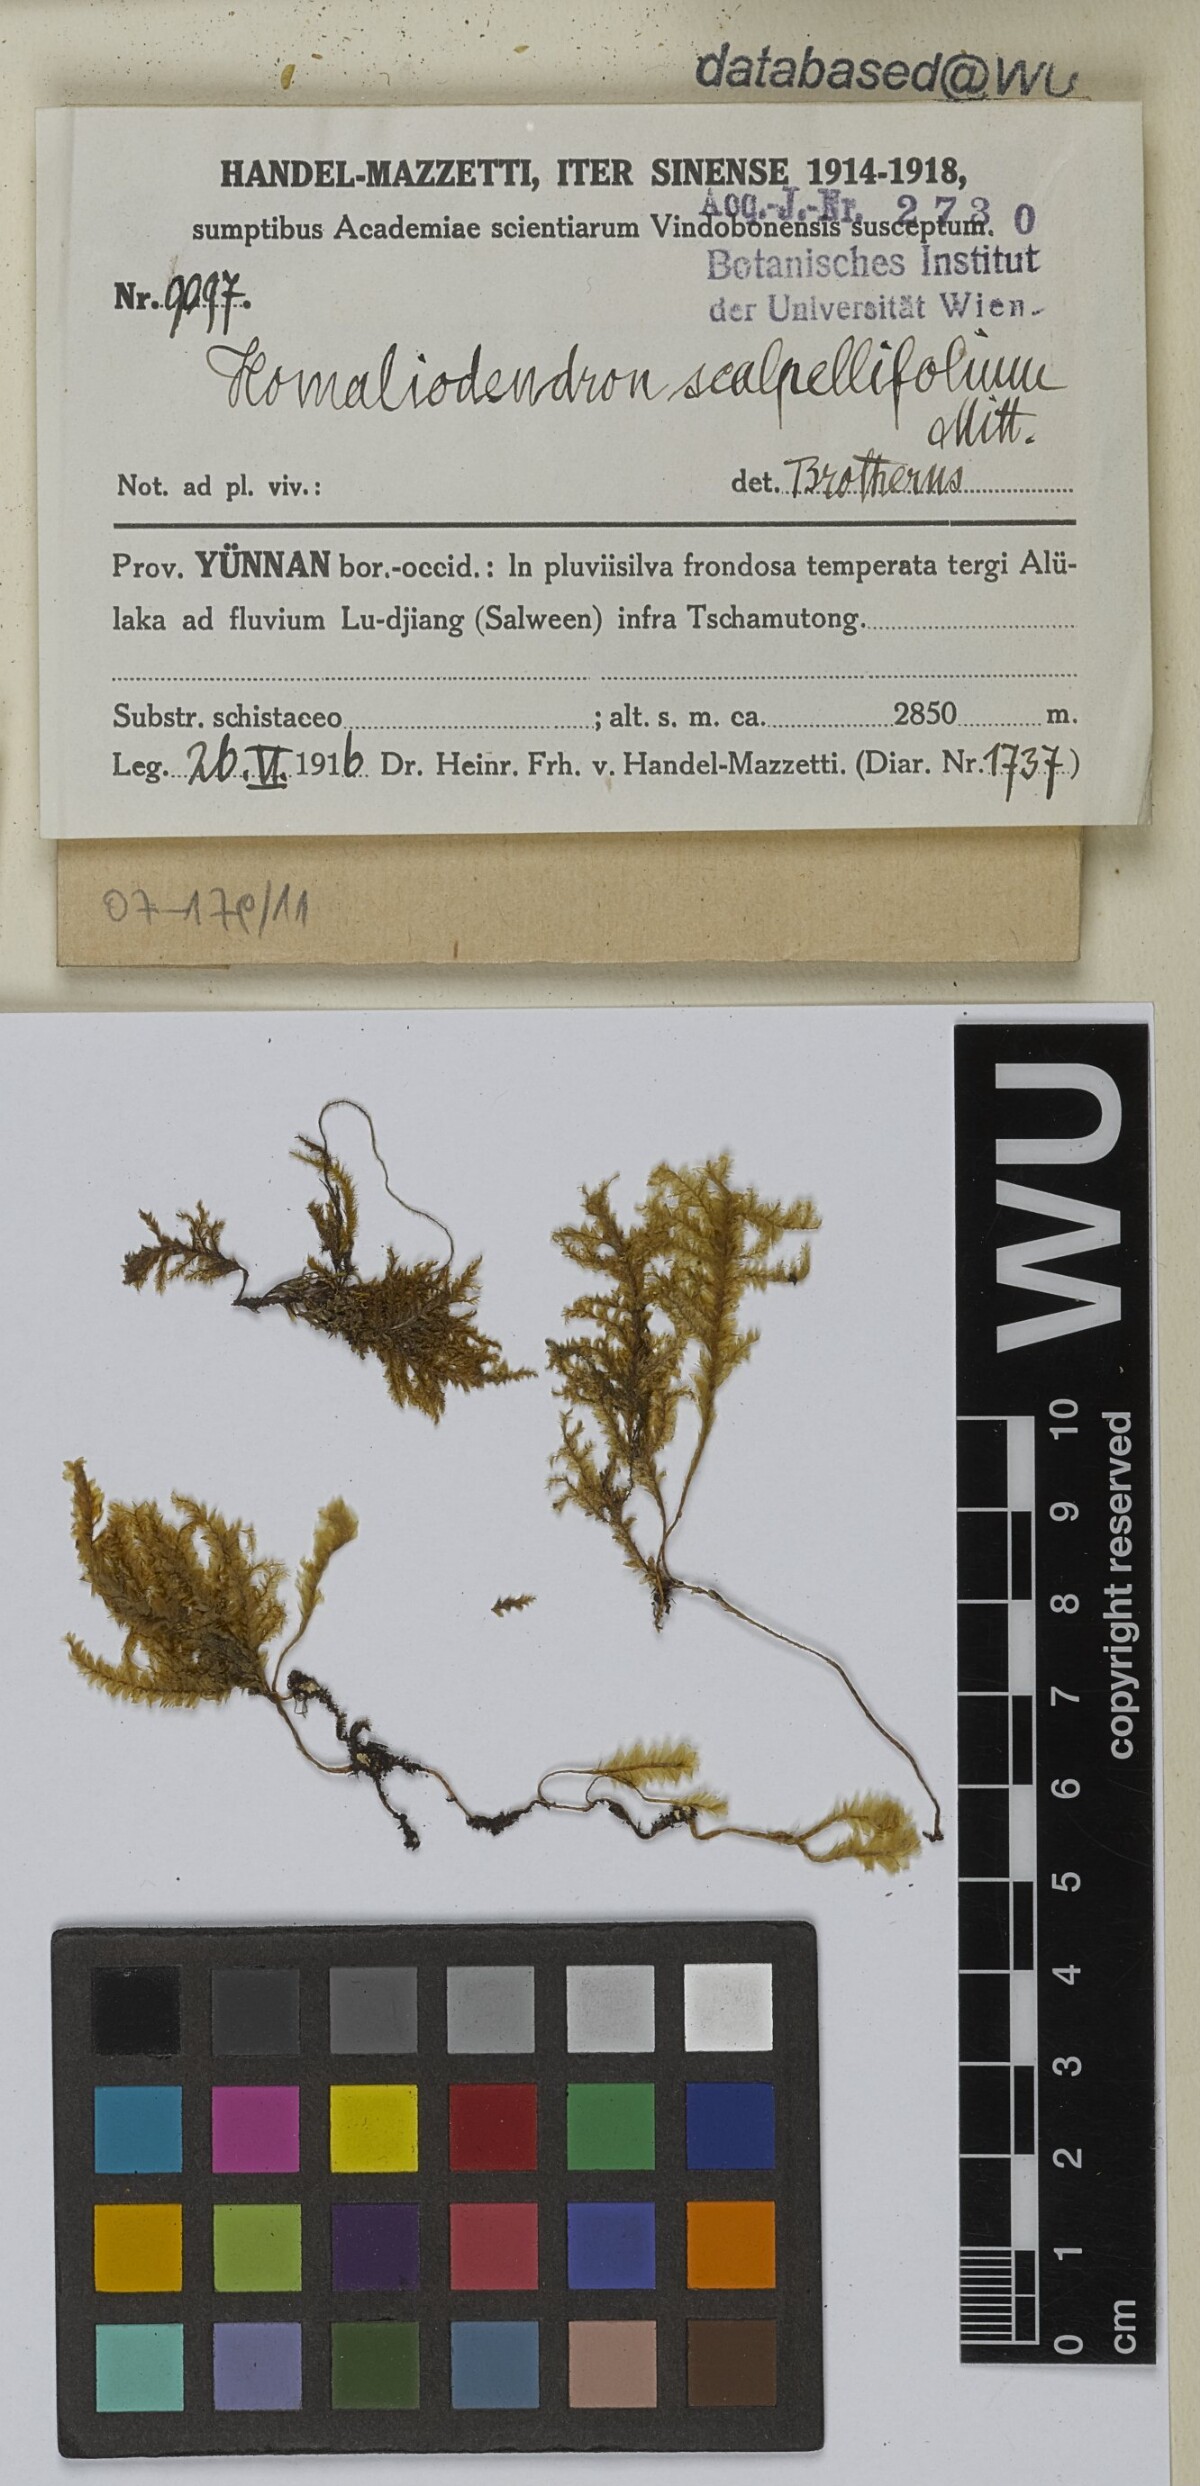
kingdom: Plantae
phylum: Bryophyta
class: Bryopsida
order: Hypnales
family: Neckeraceae
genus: Homaliodendron
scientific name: Homaliodendron flabellatum
